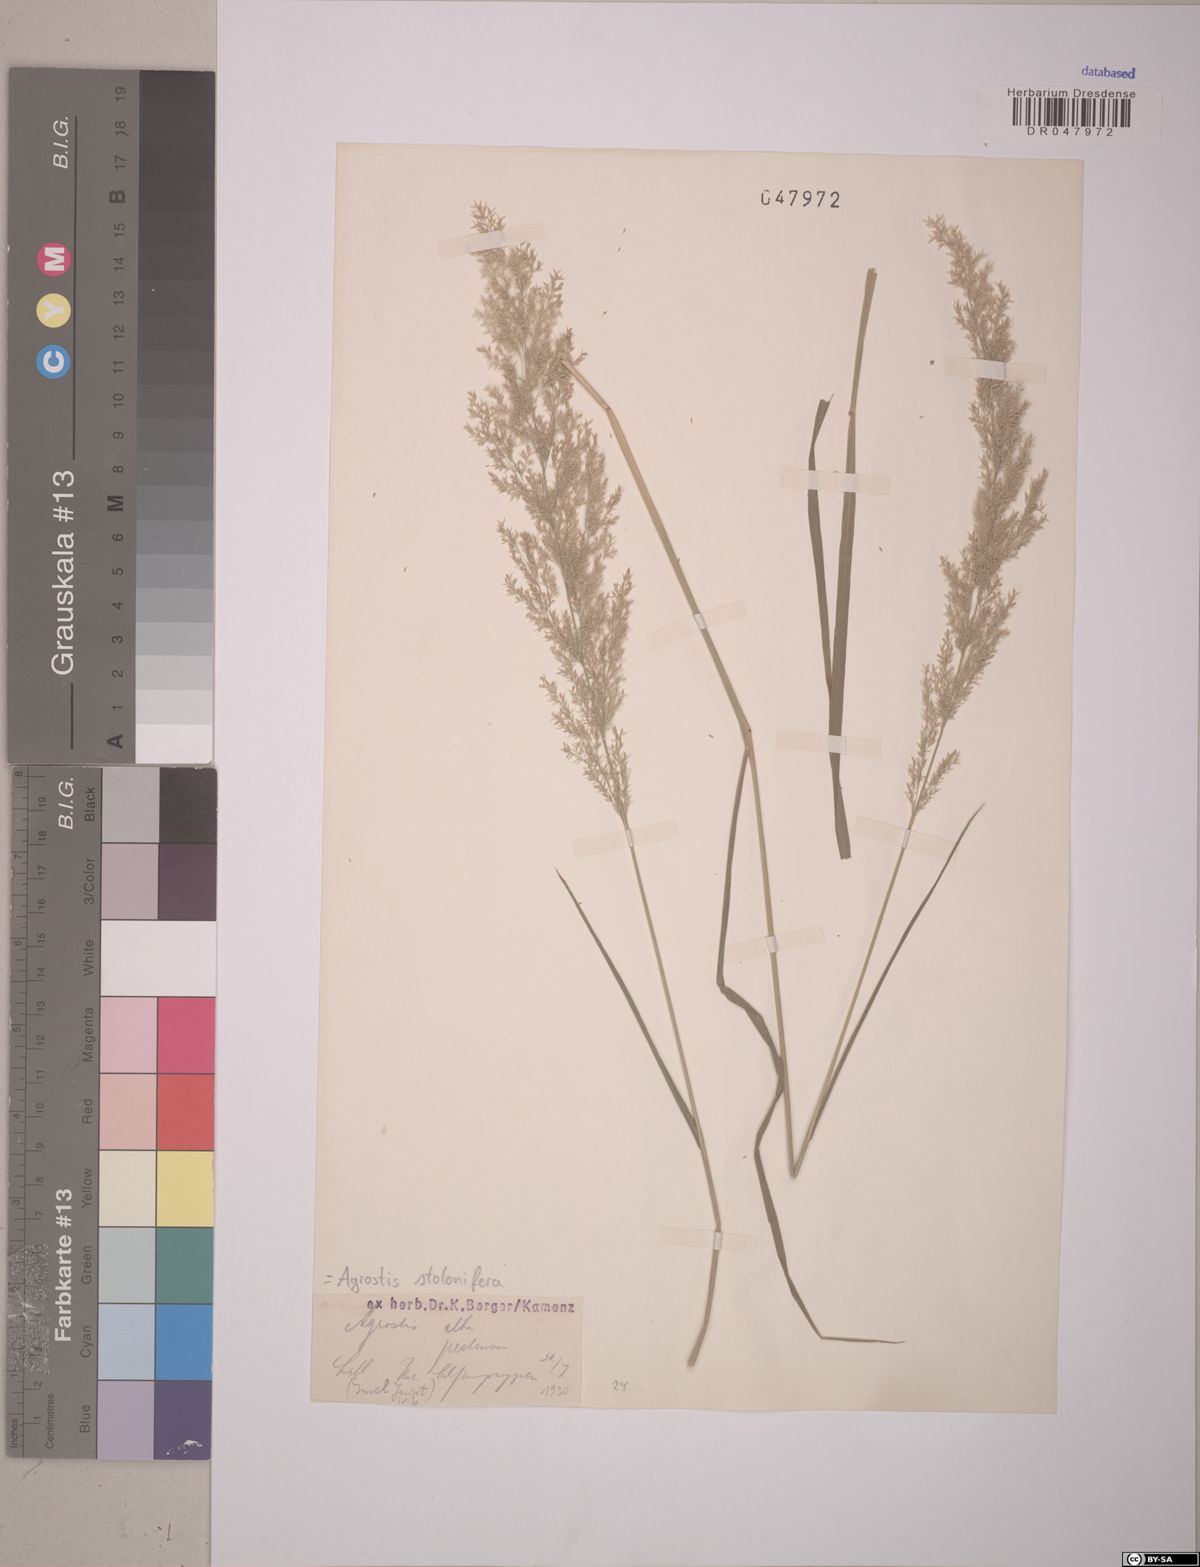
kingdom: Plantae
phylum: Tracheophyta
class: Liliopsida
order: Poales
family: Poaceae
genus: Agrostis
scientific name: Agrostis stolonifera
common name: Creeping bentgrass
